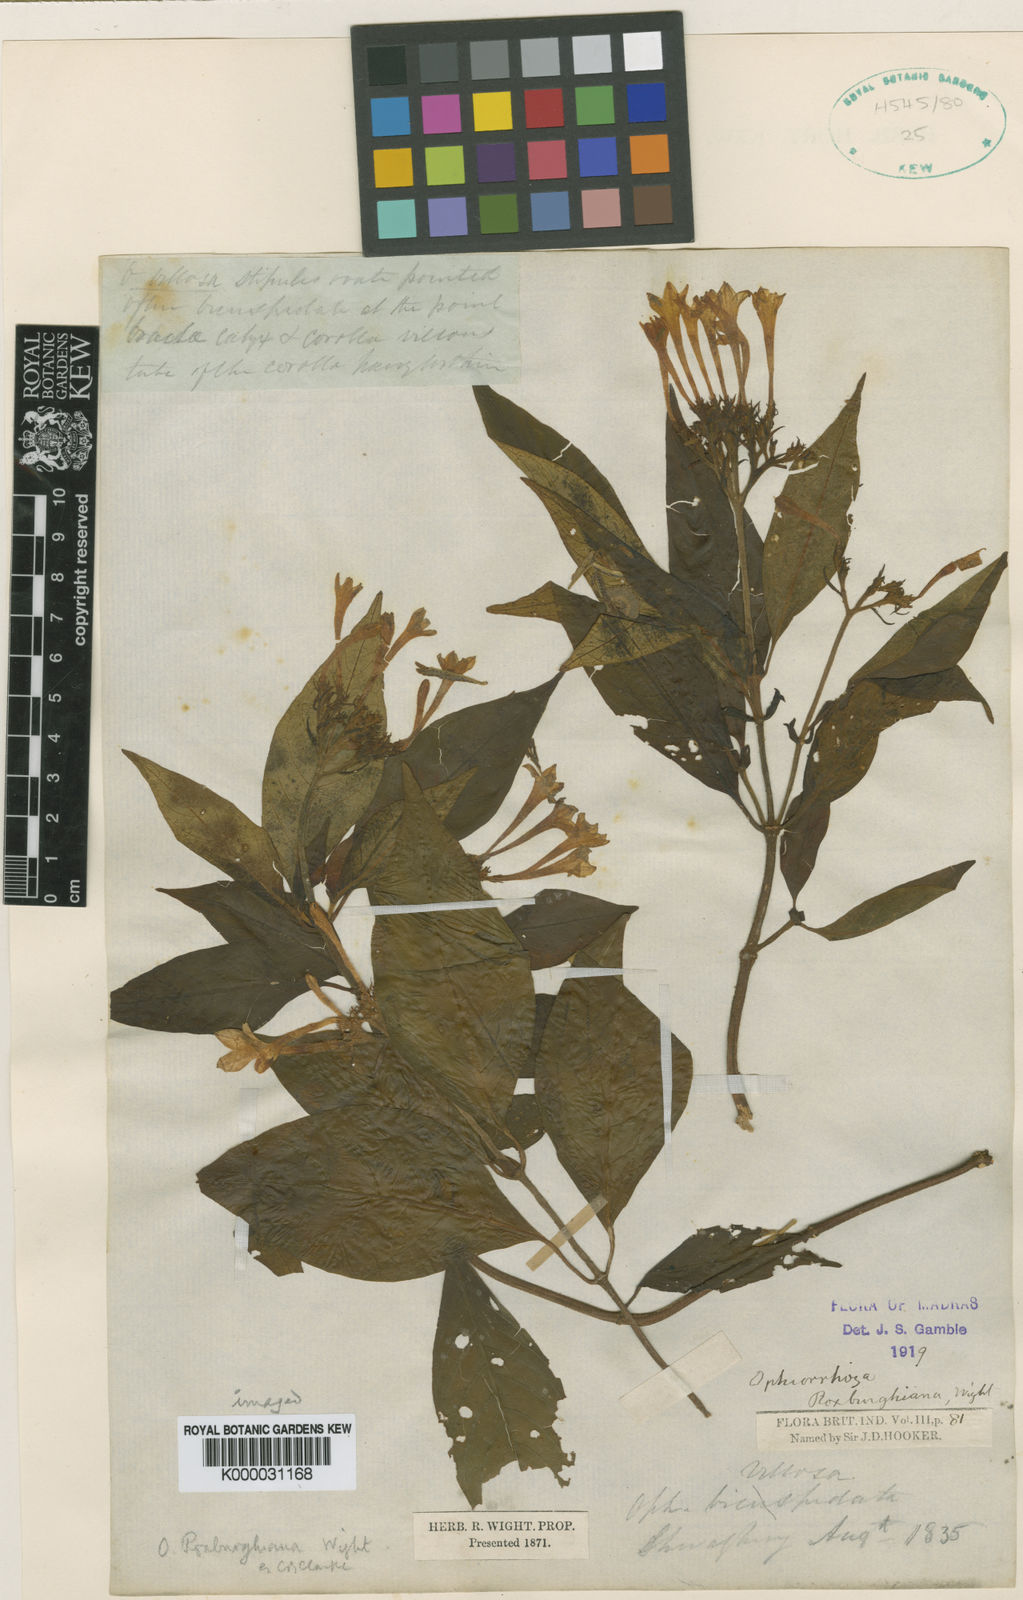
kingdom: Plantae
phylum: Tracheophyta
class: Magnoliopsida
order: Gentianales
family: Rubiaceae
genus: Ophiorrhiza
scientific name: Ophiorrhiza roxburghiana
